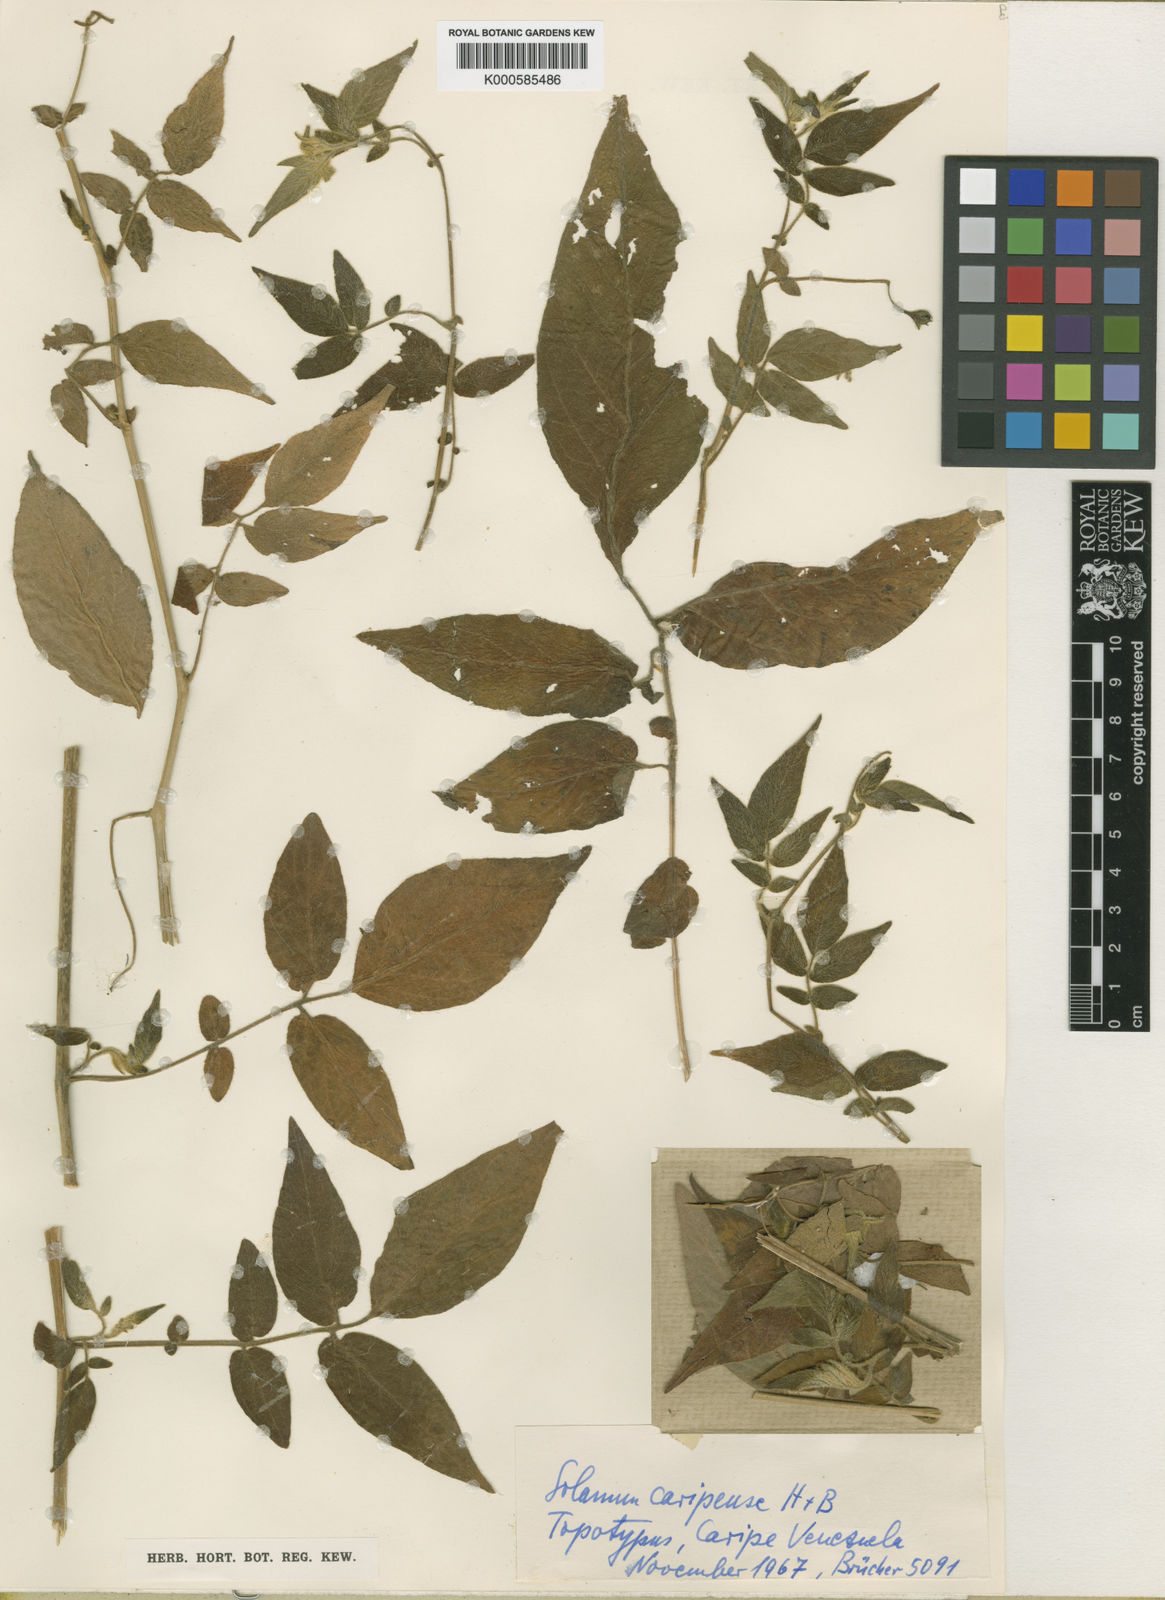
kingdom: Plantae
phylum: Tracheophyta
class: Magnoliopsida
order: Solanales
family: Solanaceae
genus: Solanum
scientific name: Solanum
